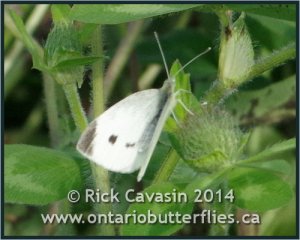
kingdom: Animalia
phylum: Arthropoda
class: Insecta
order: Lepidoptera
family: Pieridae
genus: Pieris
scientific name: Pieris rapae
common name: Cabbage White
